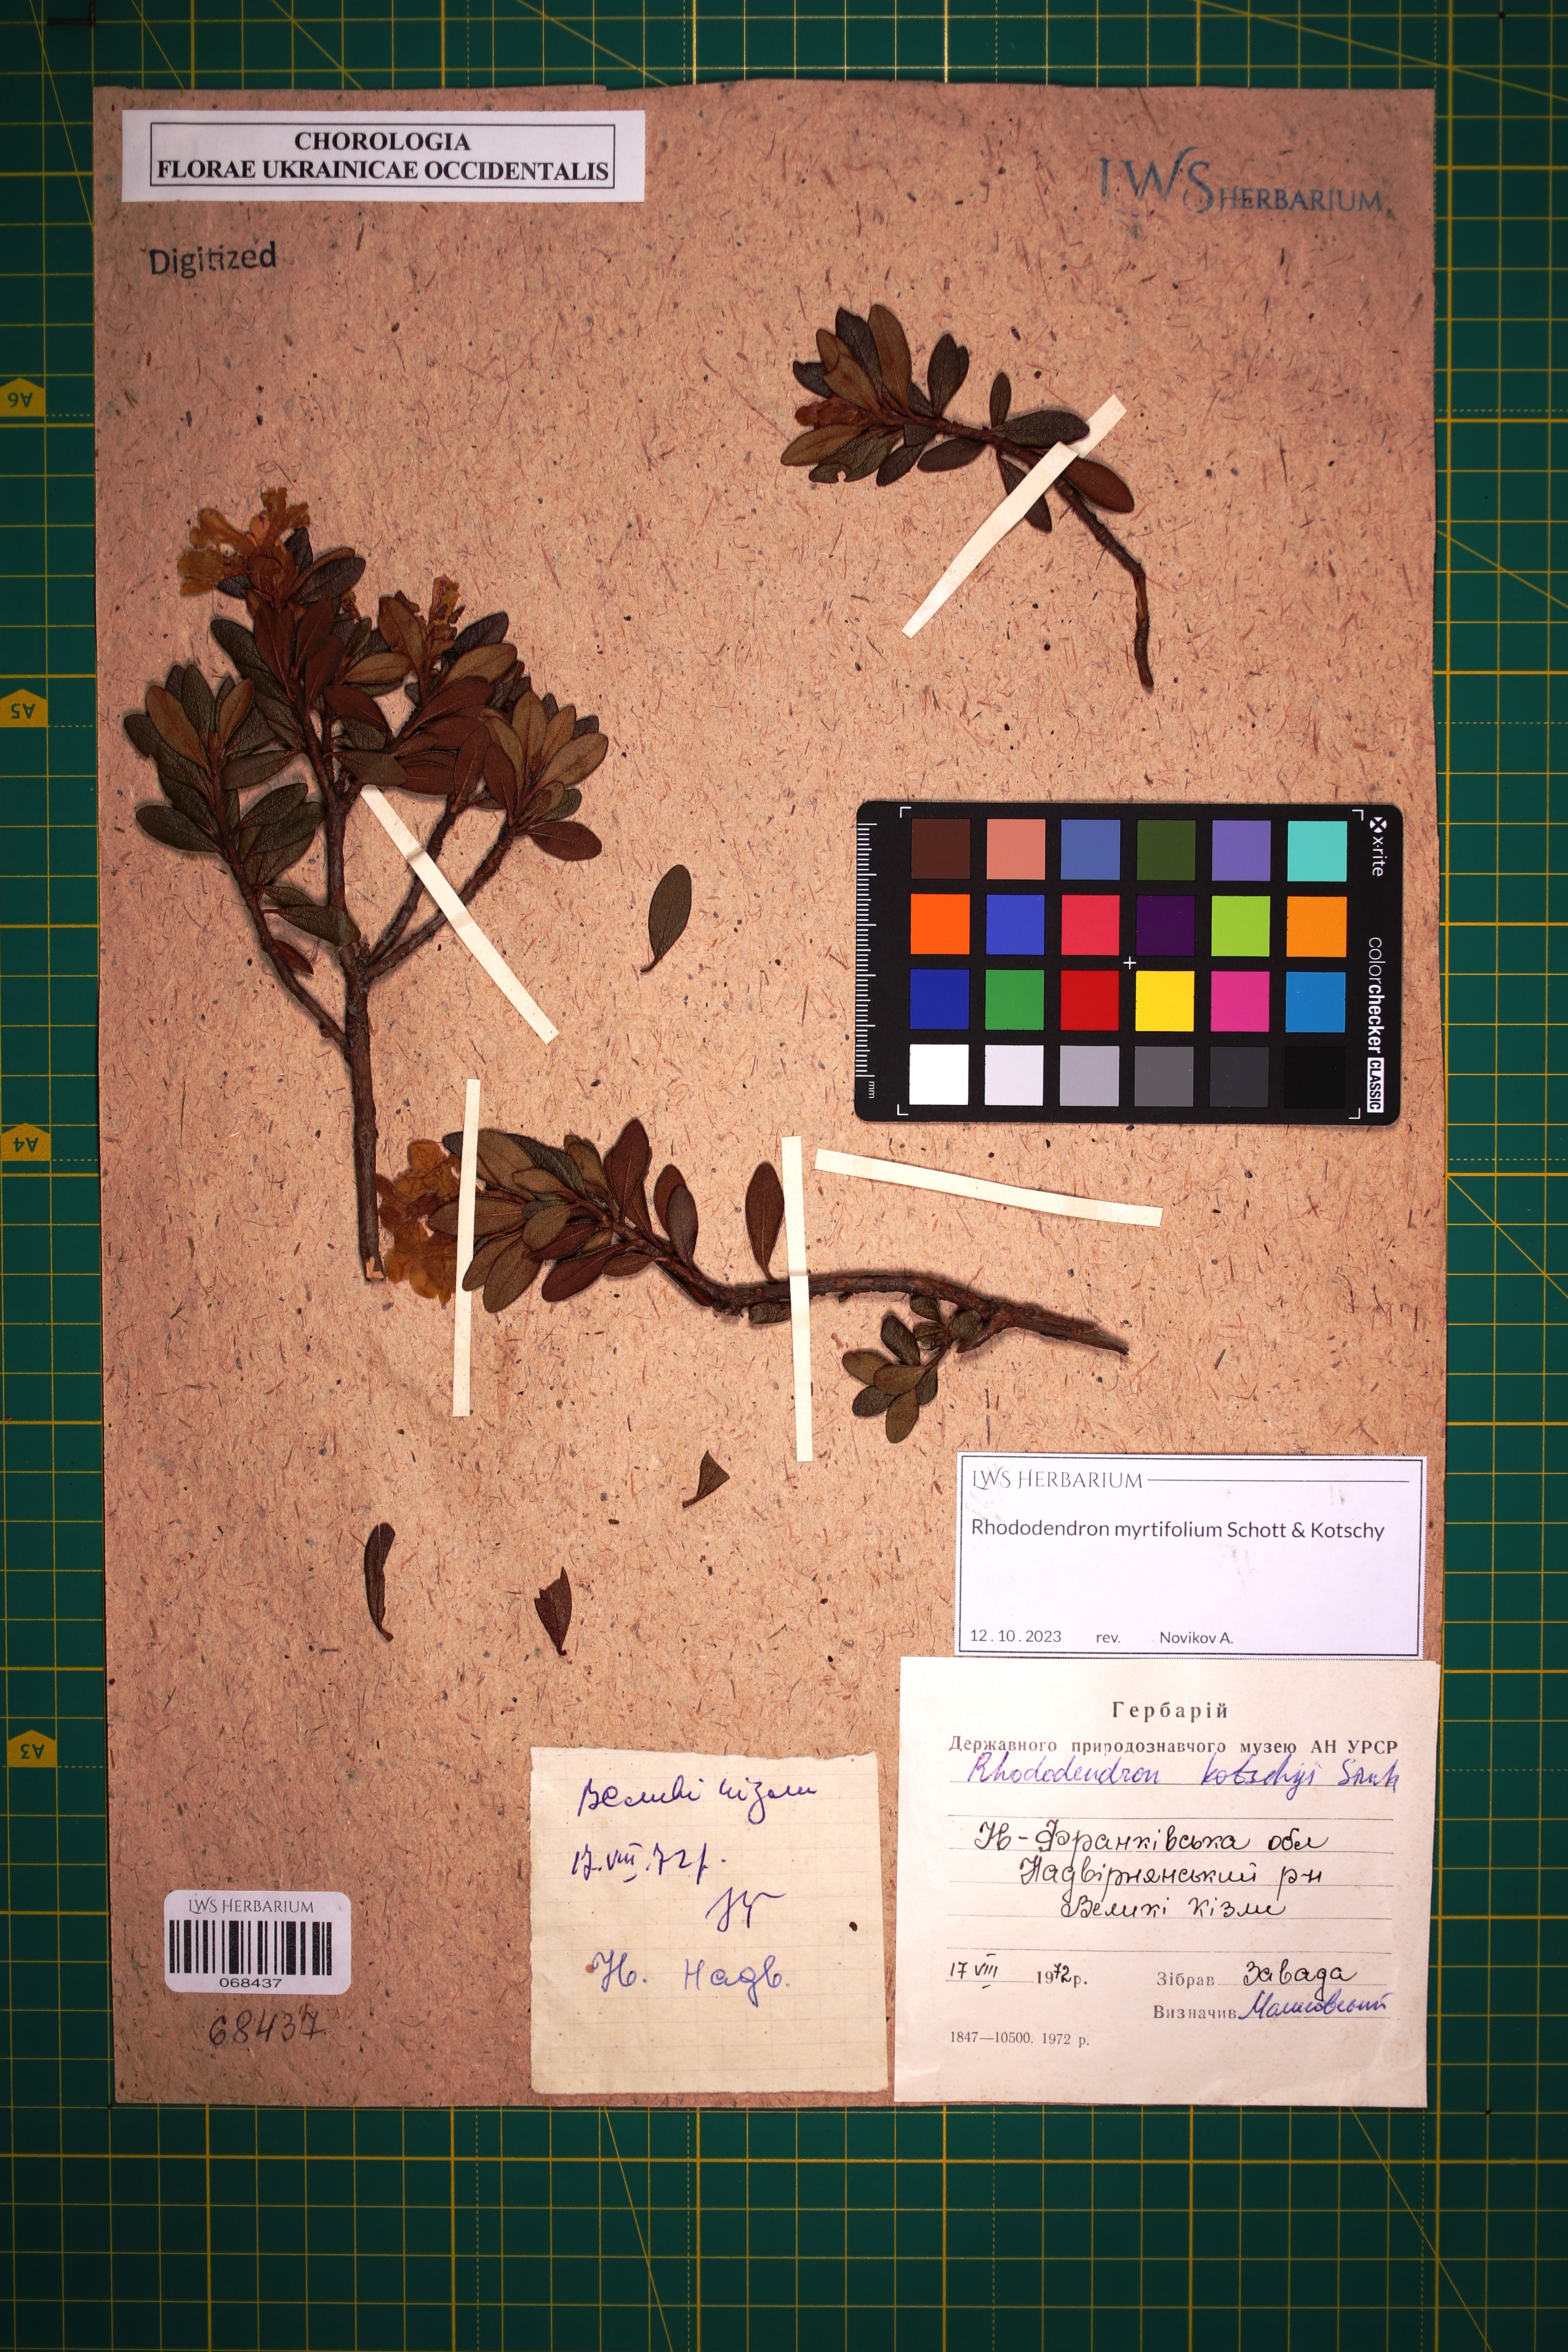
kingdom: Plantae
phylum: Tracheophyta
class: Magnoliopsida
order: Ericales
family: Ericaceae
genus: Rhododendron
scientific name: Rhododendron kotschyi
